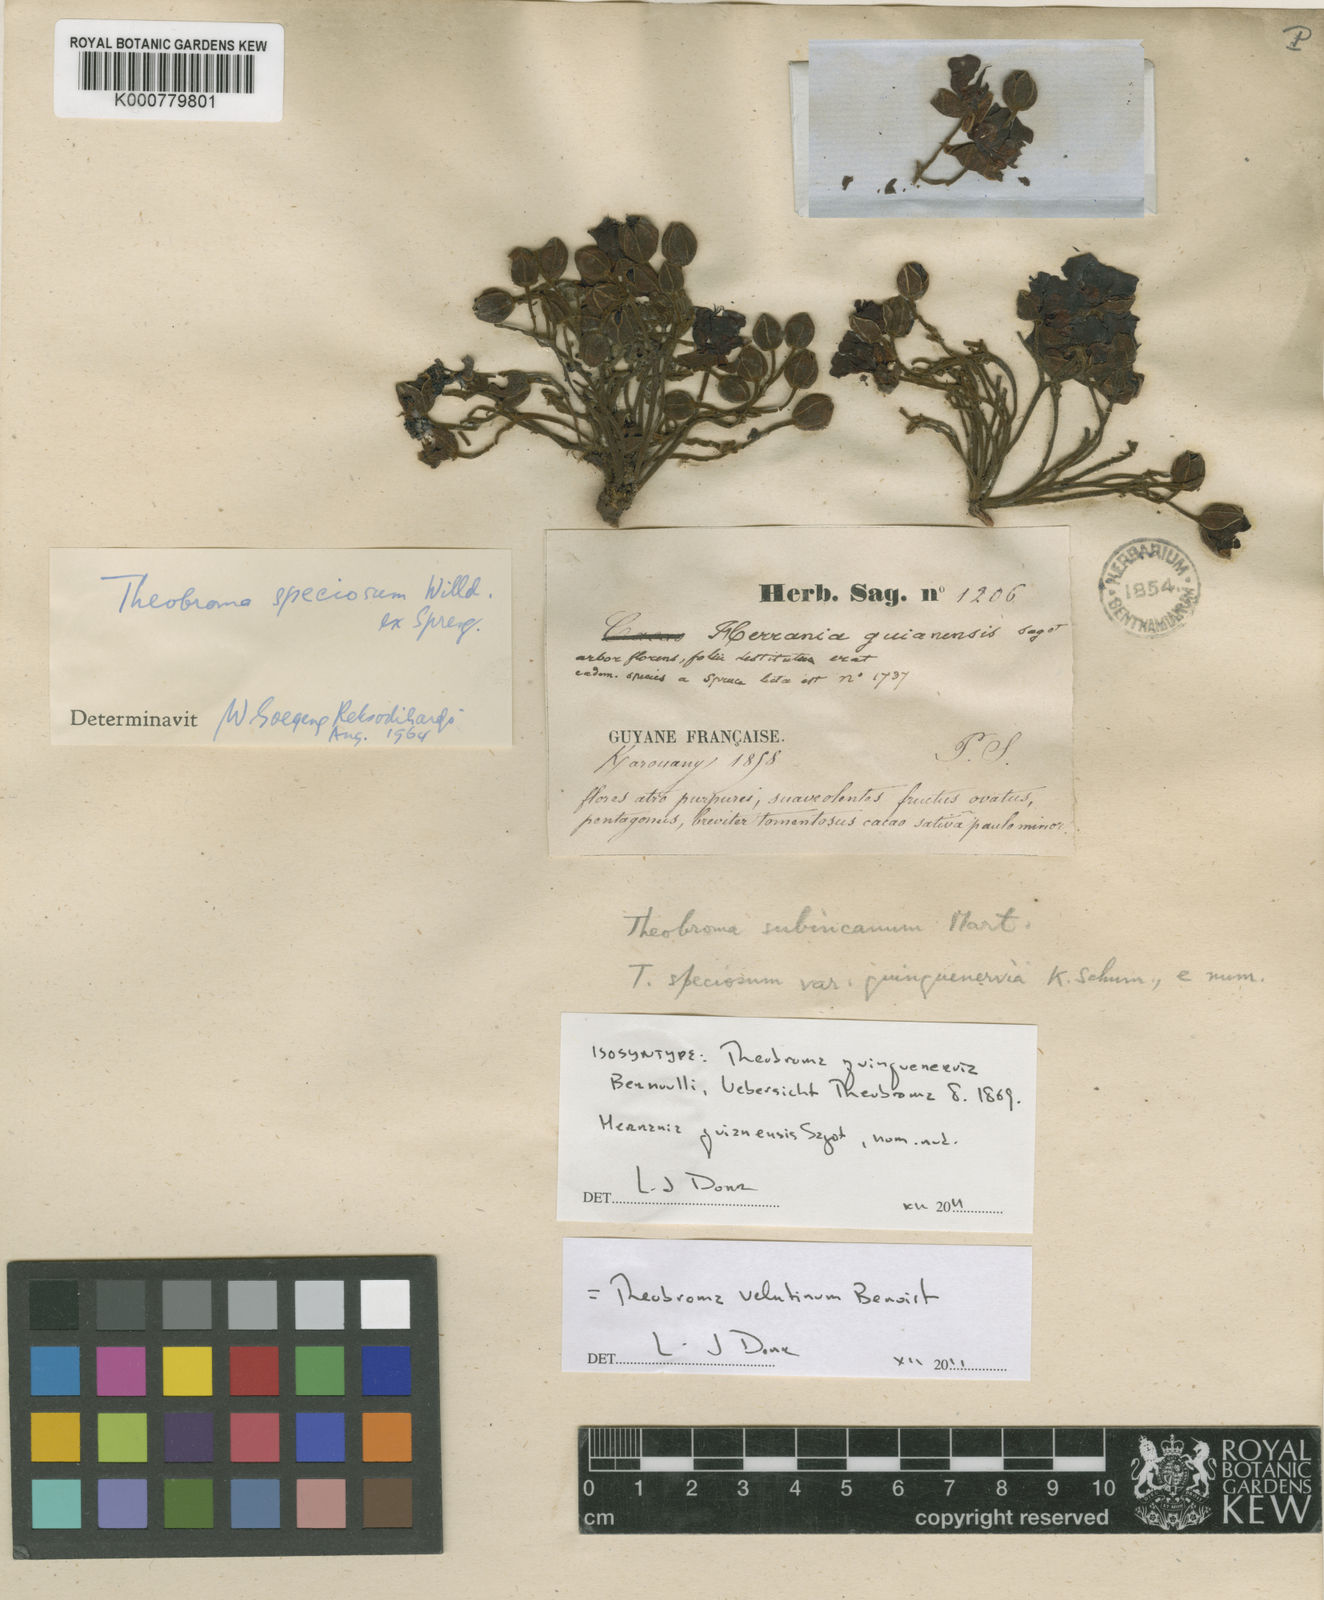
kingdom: Plantae
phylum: Tracheophyta
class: Magnoliopsida
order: Malvales
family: Malvaceae
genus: Theobroma
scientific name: Theobroma speciosum
